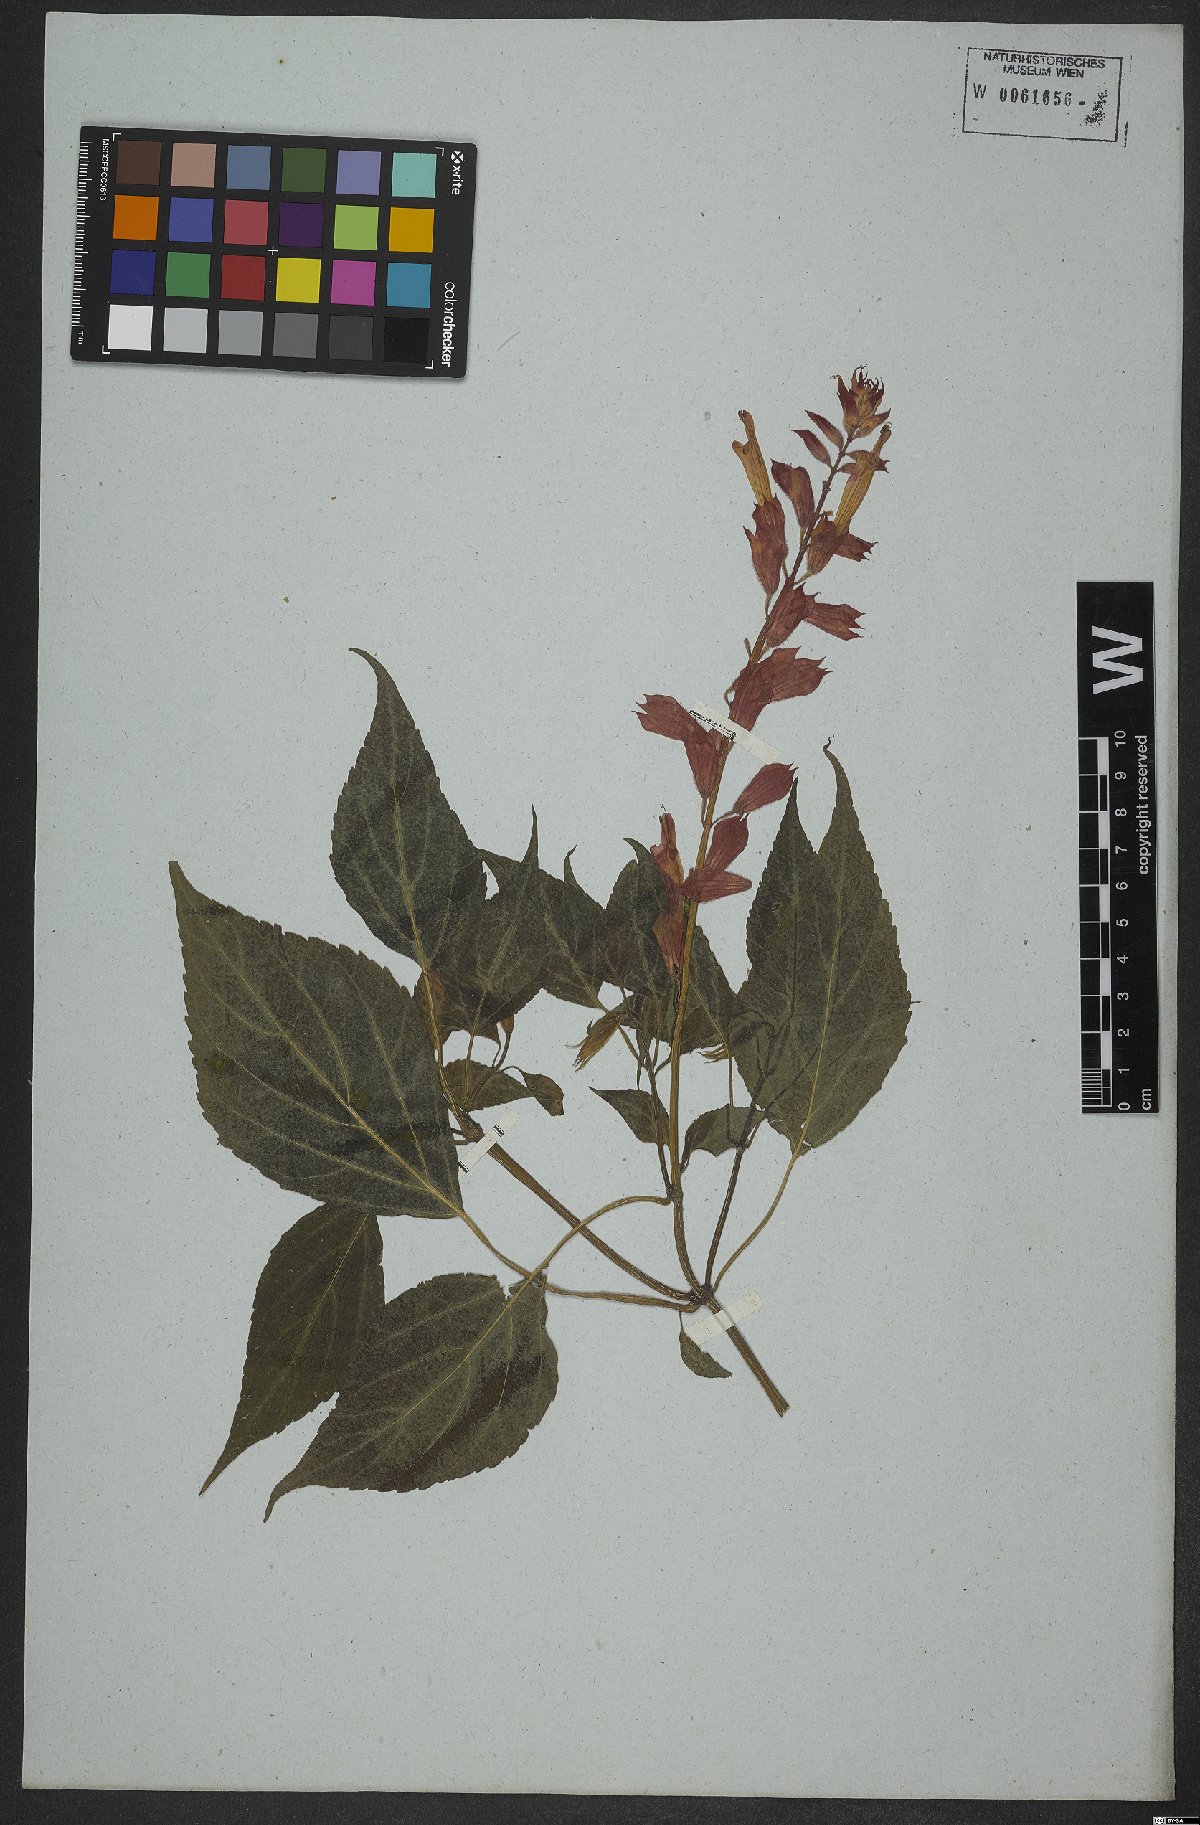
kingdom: Plantae
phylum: Tracheophyta
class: Magnoliopsida
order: Lamiales
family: Lamiaceae
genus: Salvia
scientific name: Salvia splendens
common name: Scarlet sage
